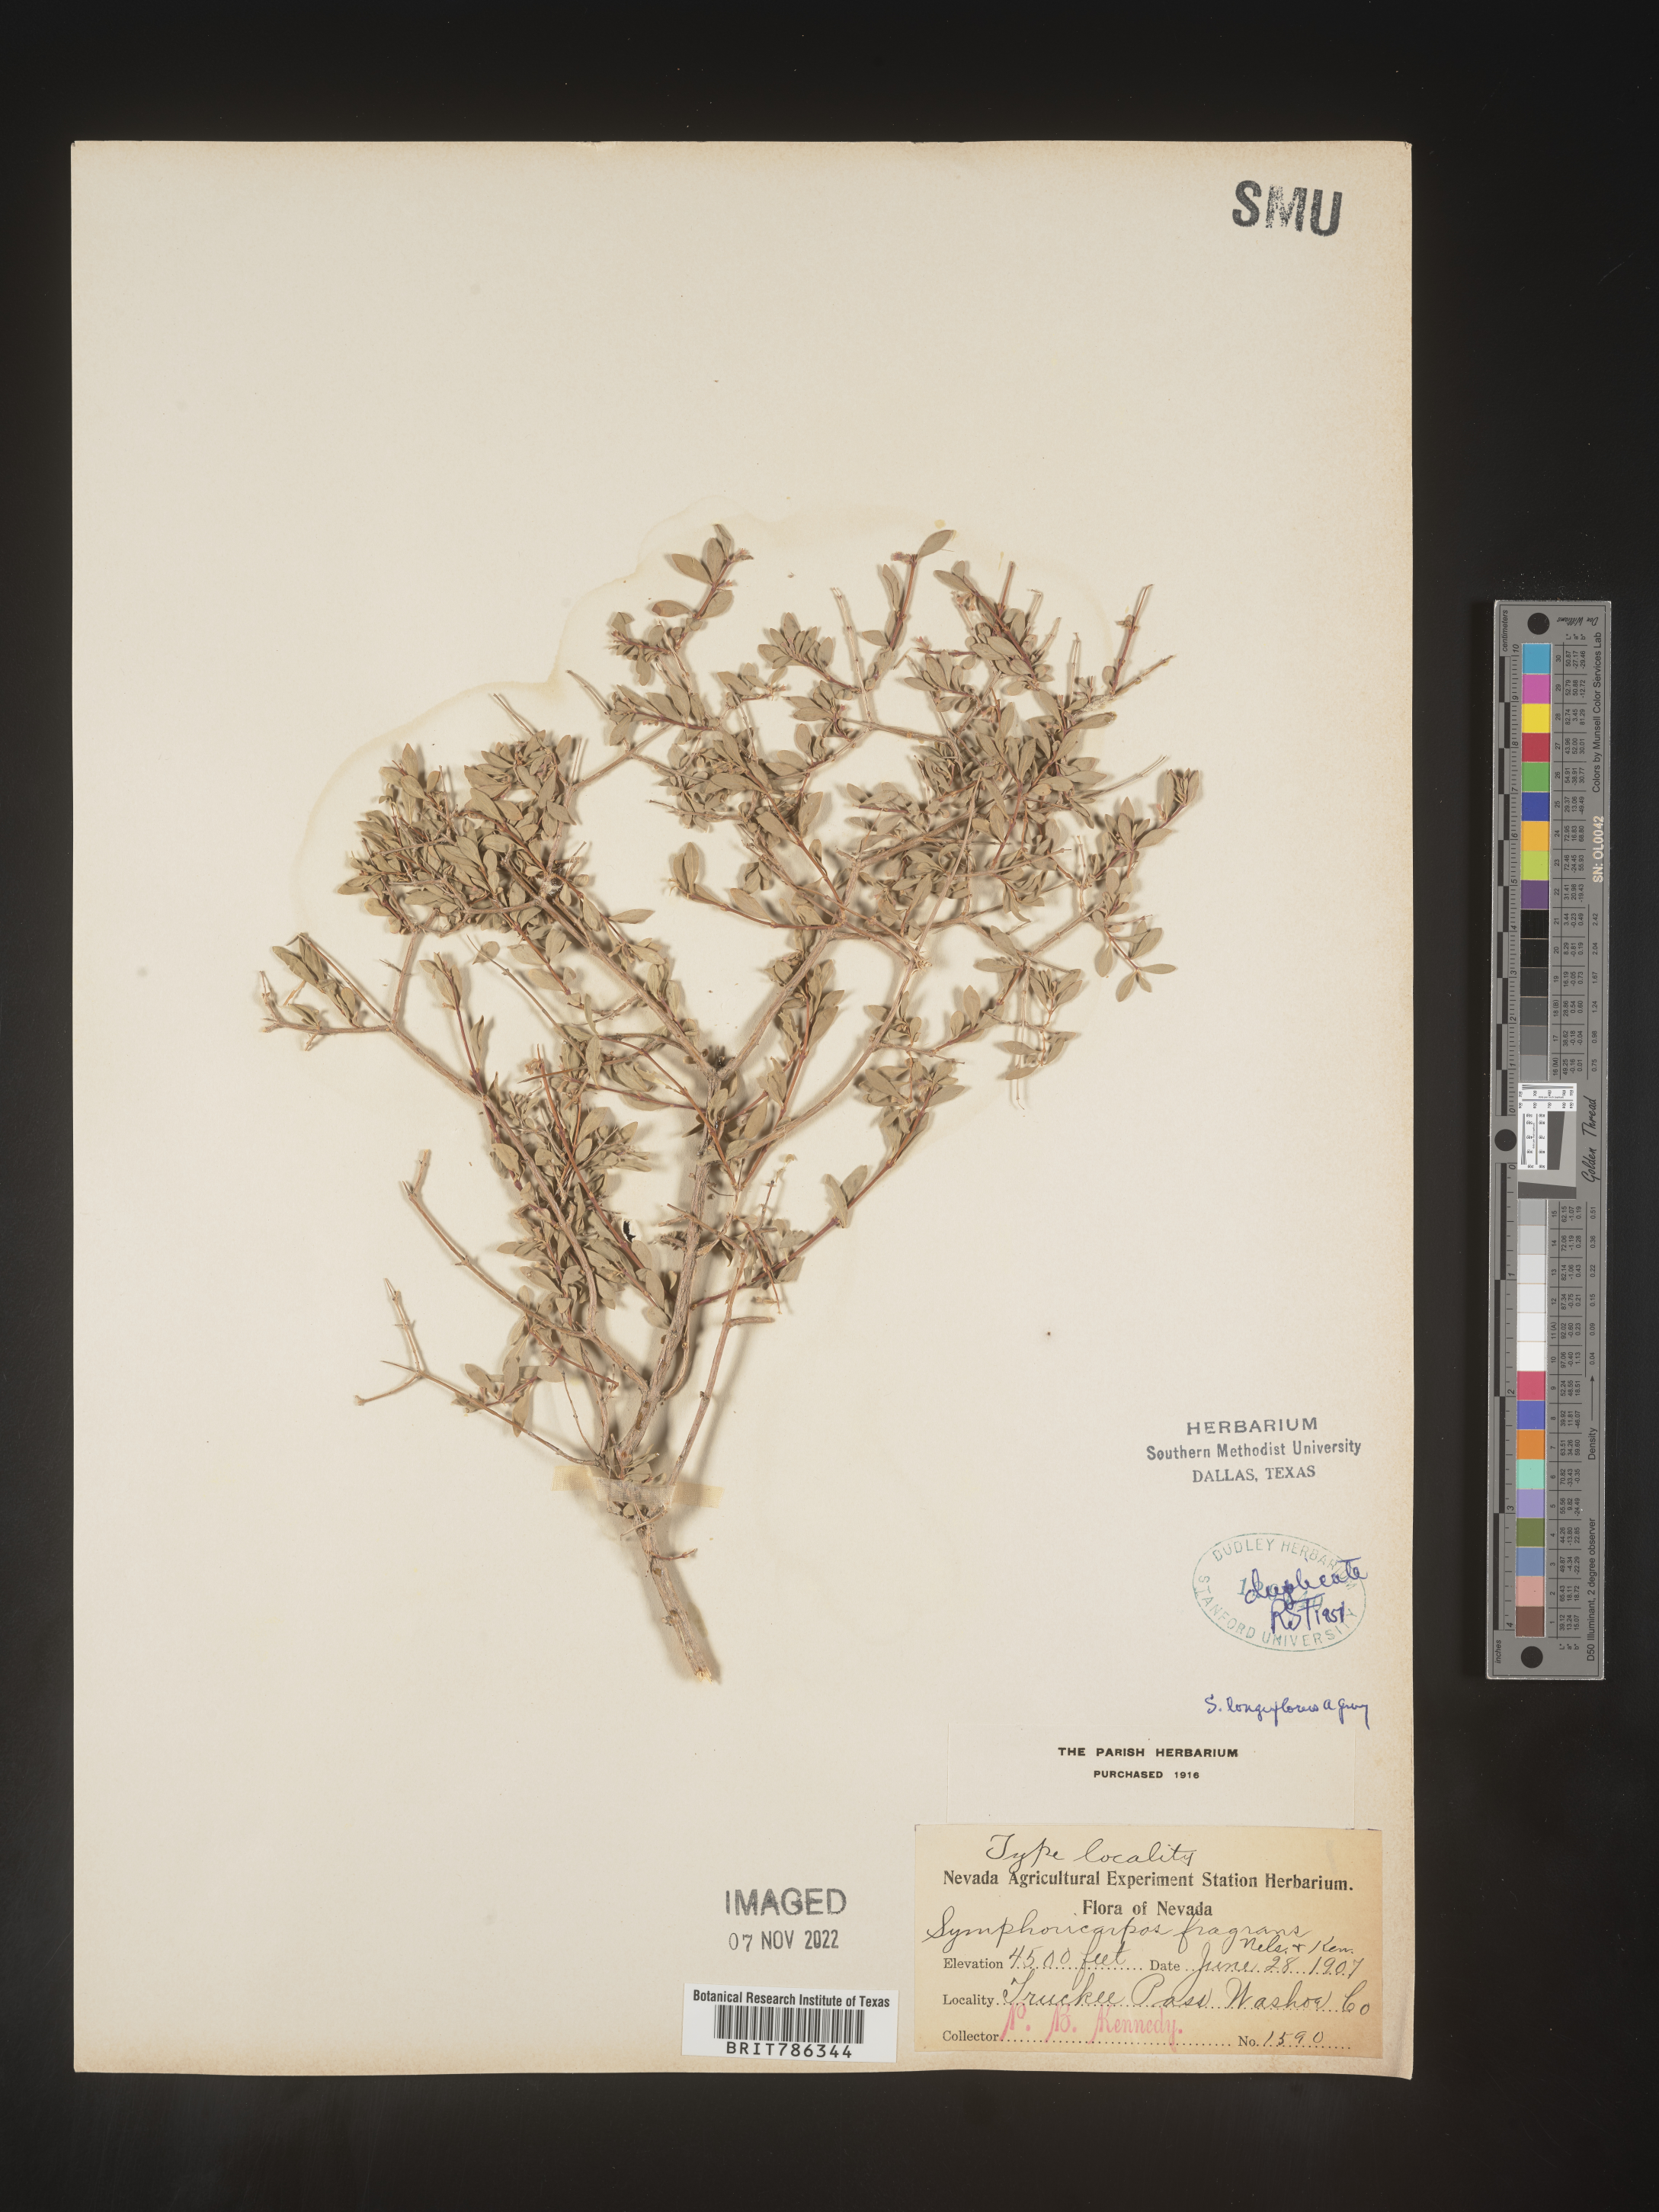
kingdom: Plantae
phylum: Tracheophyta
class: Magnoliopsida
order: Dipsacales
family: Caprifoliaceae
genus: Symphoricarpos
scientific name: Symphoricarpos
